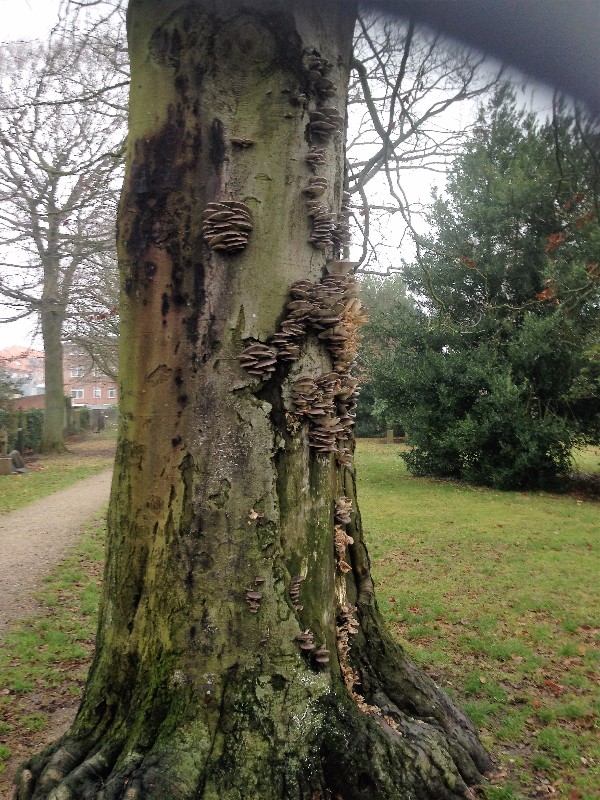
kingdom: Fungi
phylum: Basidiomycota
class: Agaricomycetes
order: Agaricales
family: Pleurotaceae
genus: Pleurotus
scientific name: Pleurotus ostreatus
